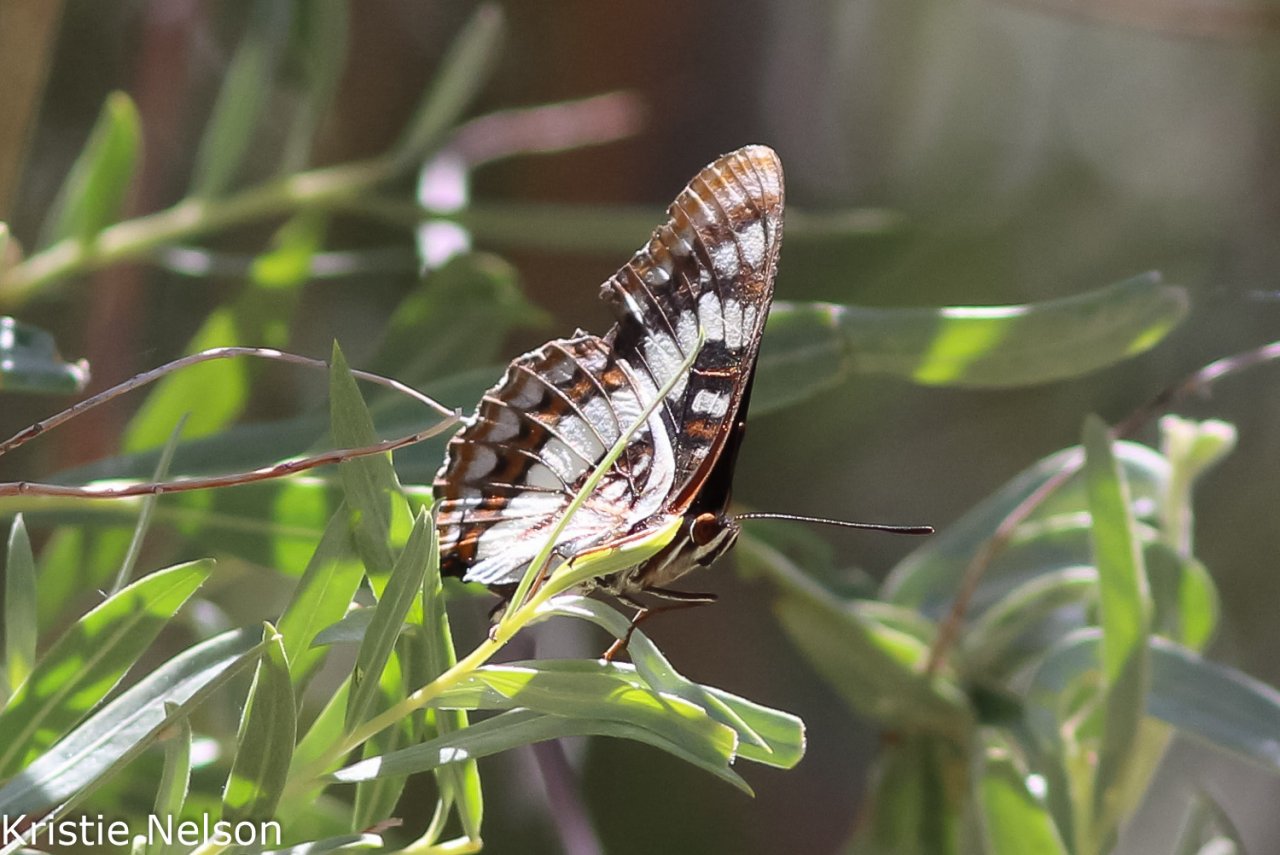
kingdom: Animalia
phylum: Arthropoda
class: Insecta
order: Lepidoptera
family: Nymphalidae
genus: Limenitis
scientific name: Limenitis lorquini
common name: Lorquin's Admiral
